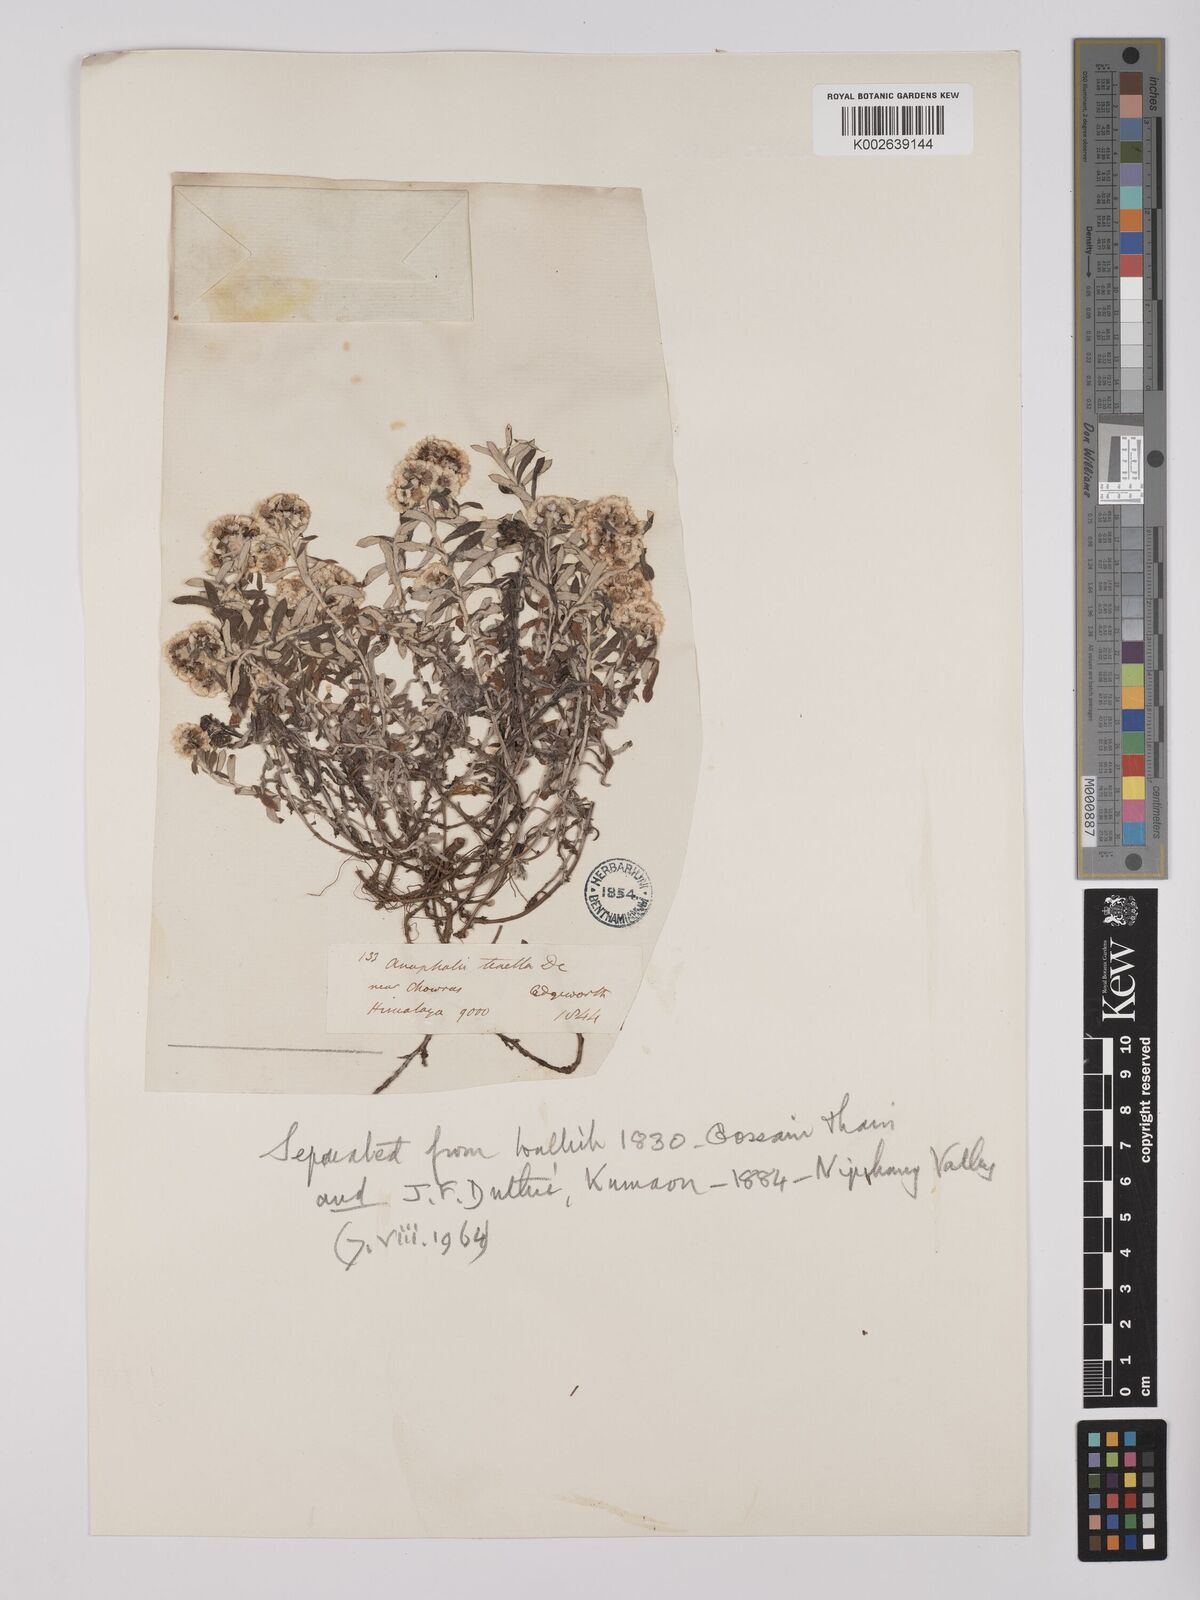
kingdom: Plantae
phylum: Tracheophyta
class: Magnoliopsida
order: Asterales
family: Asteraceae
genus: Anaphalis
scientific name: Anaphalis contorta
